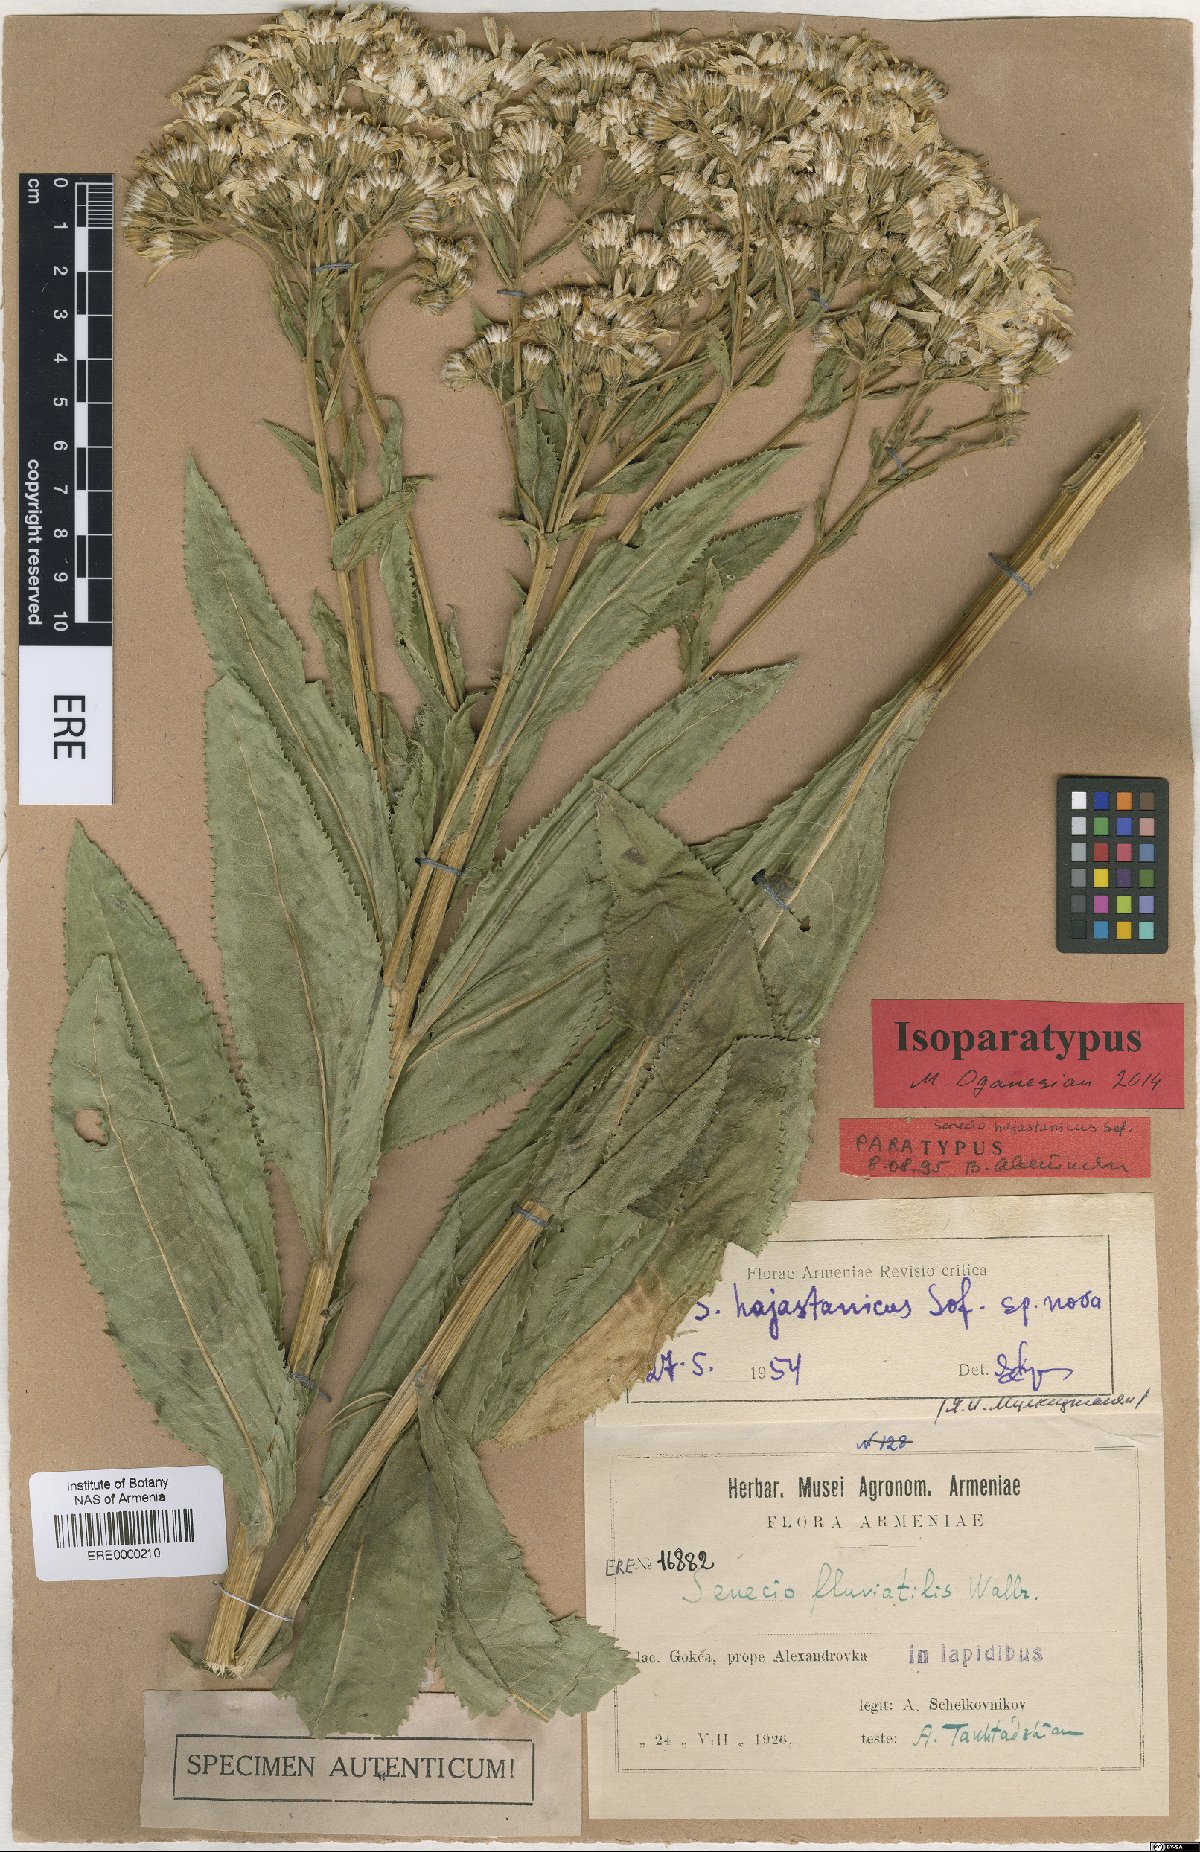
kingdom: Plantae
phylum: Tracheophyta
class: Magnoliopsida
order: Asterales
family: Asteraceae
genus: Senecio
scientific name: Senecio hajastanicus
